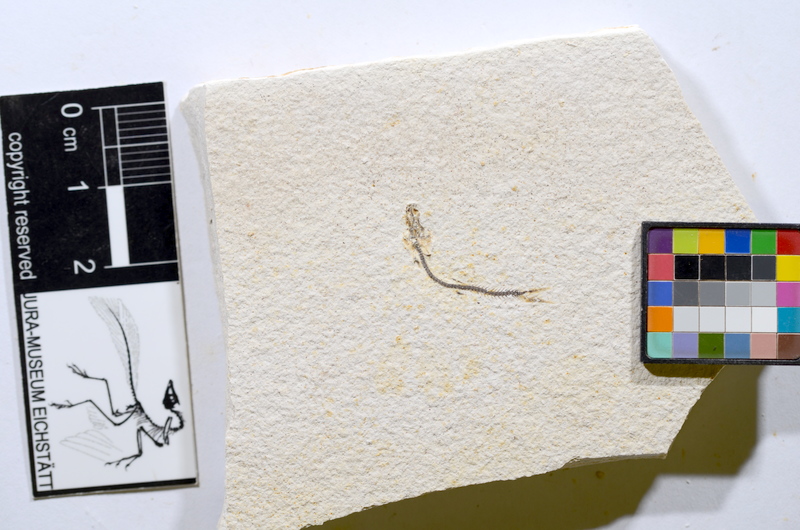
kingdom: Animalia
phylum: Chordata
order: Salmoniformes
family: Orthogonikleithridae
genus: Orthogonikleithrus
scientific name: Orthogonikleithrus hoelli
